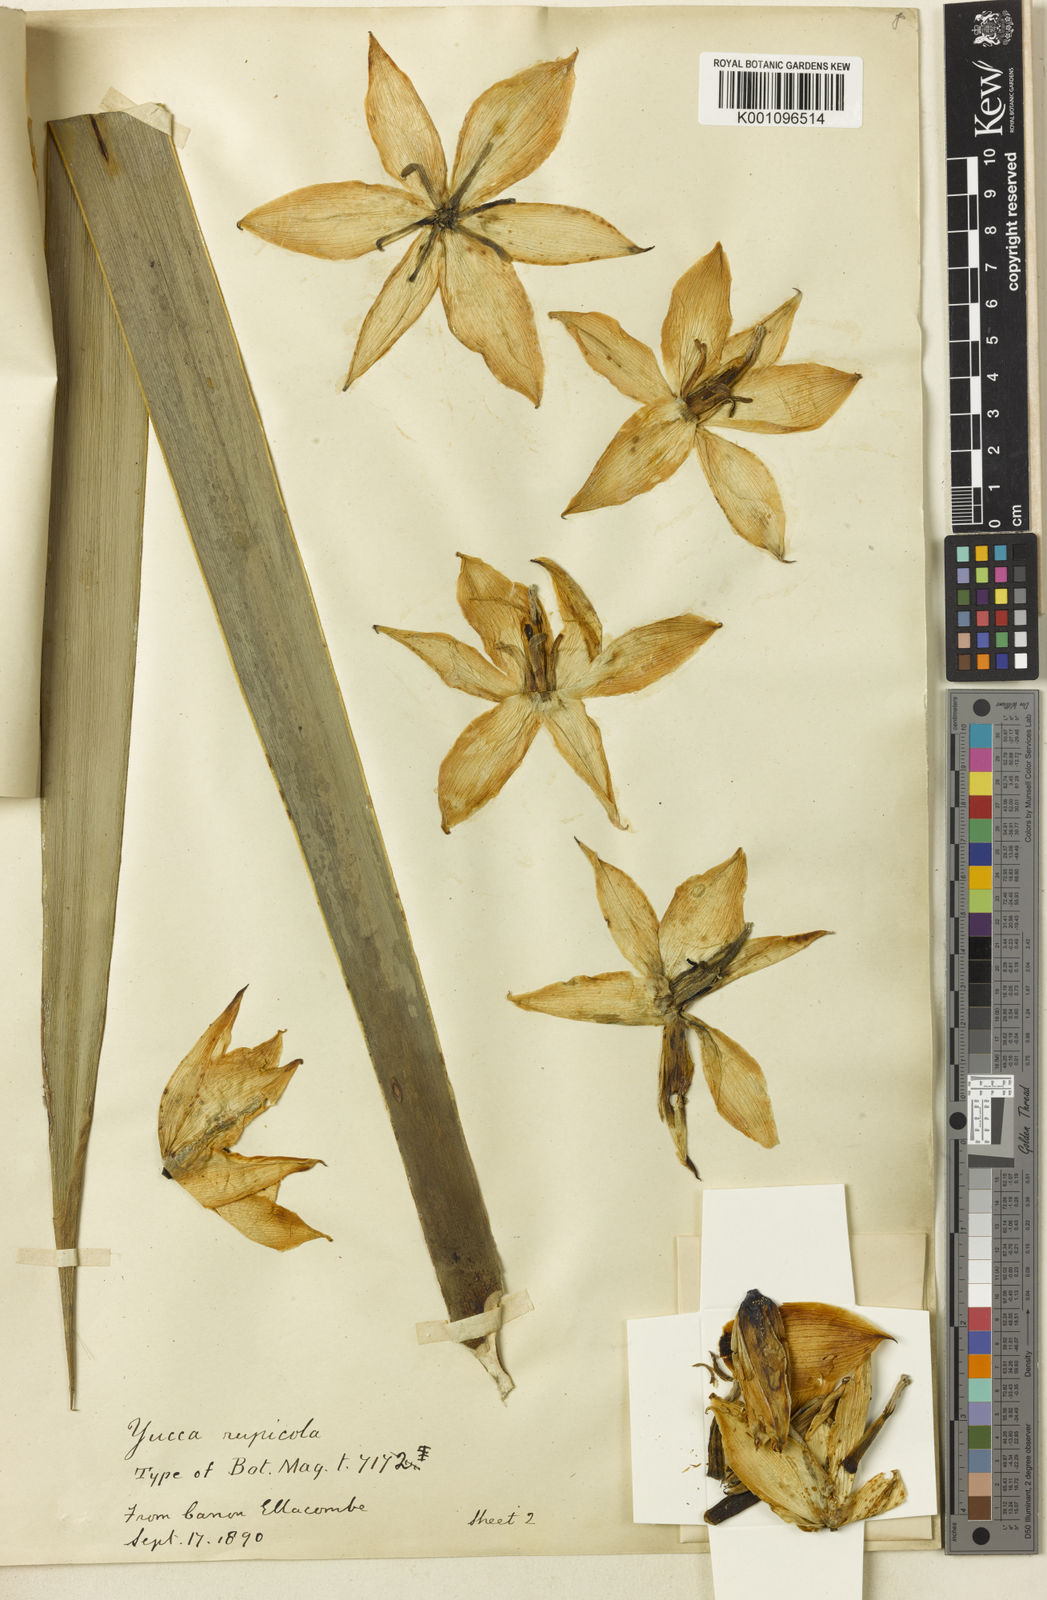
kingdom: Plantae
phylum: Tracheophyta
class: Liliopsida
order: Asparagales
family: Asparagaceae
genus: Yucca
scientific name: Yucca rupicola
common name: Twisted-leaf spanish-dagger
